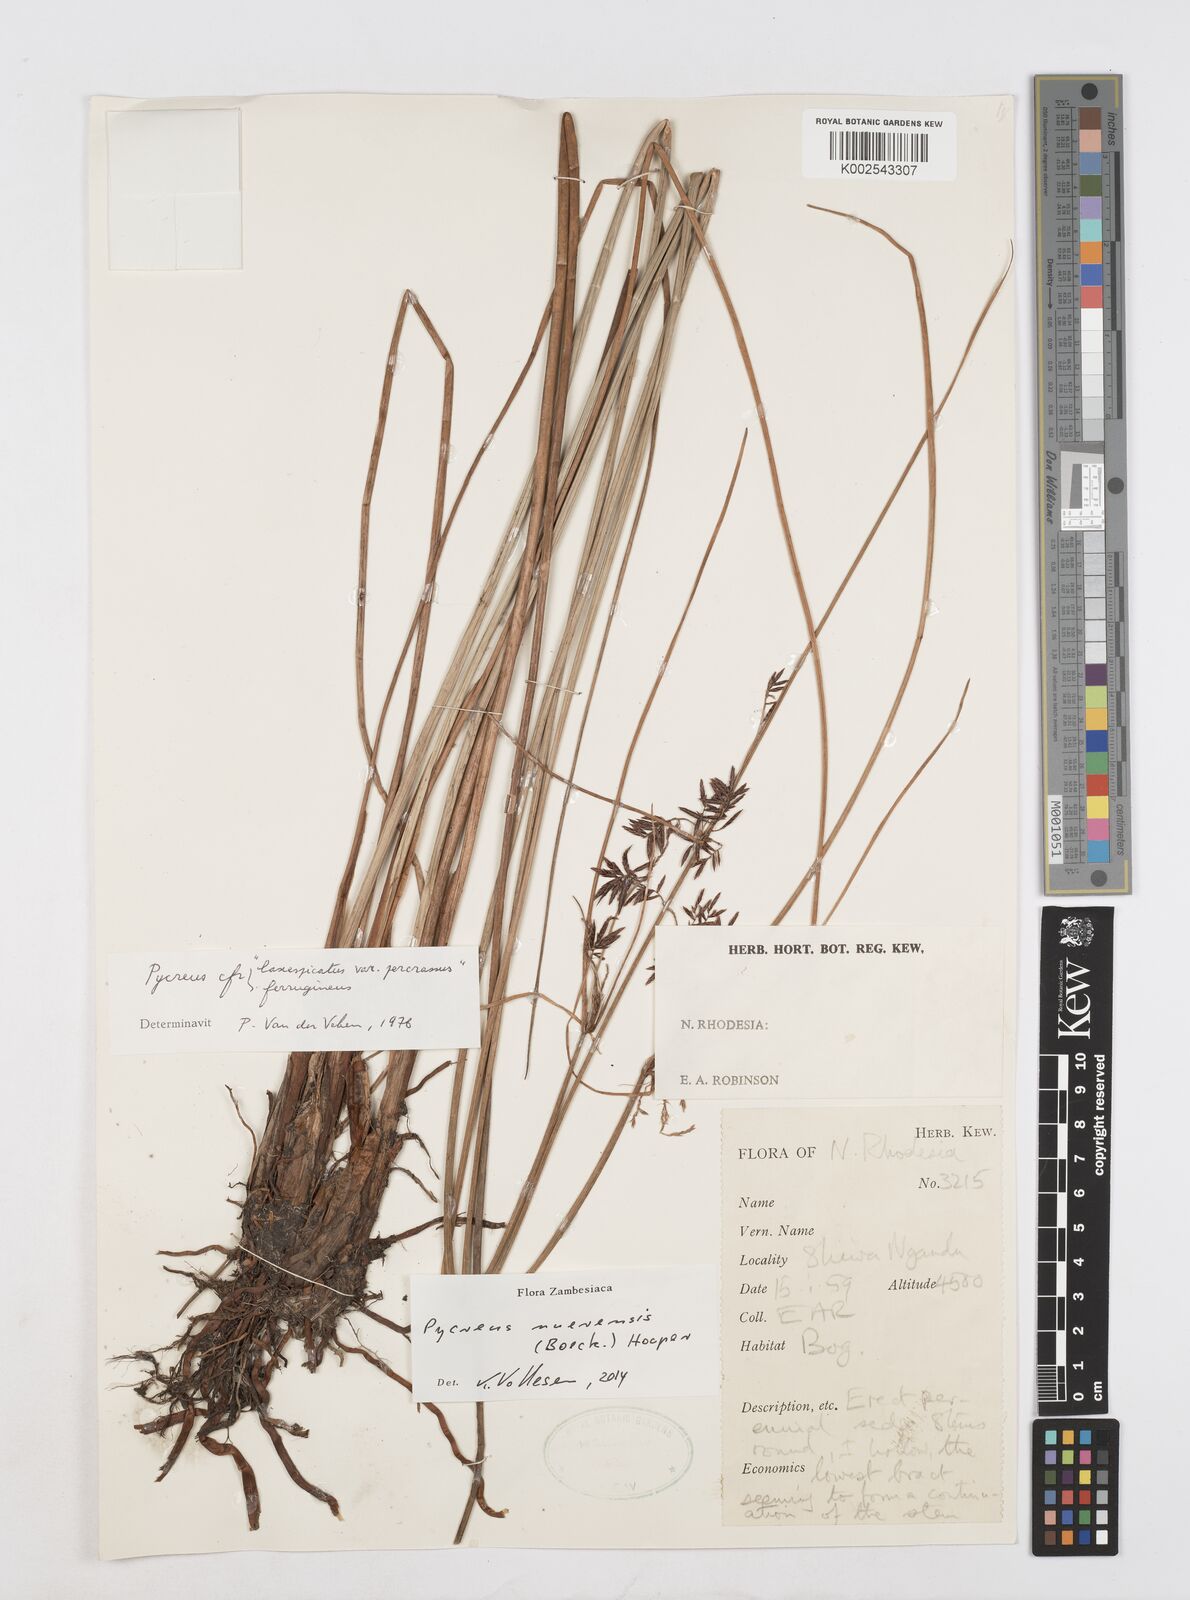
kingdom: Plantae
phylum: Tracheophyta
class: Liliopsida
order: Poales
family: Cyperaceae
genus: Cyperus
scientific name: Cyperus nuerensis
